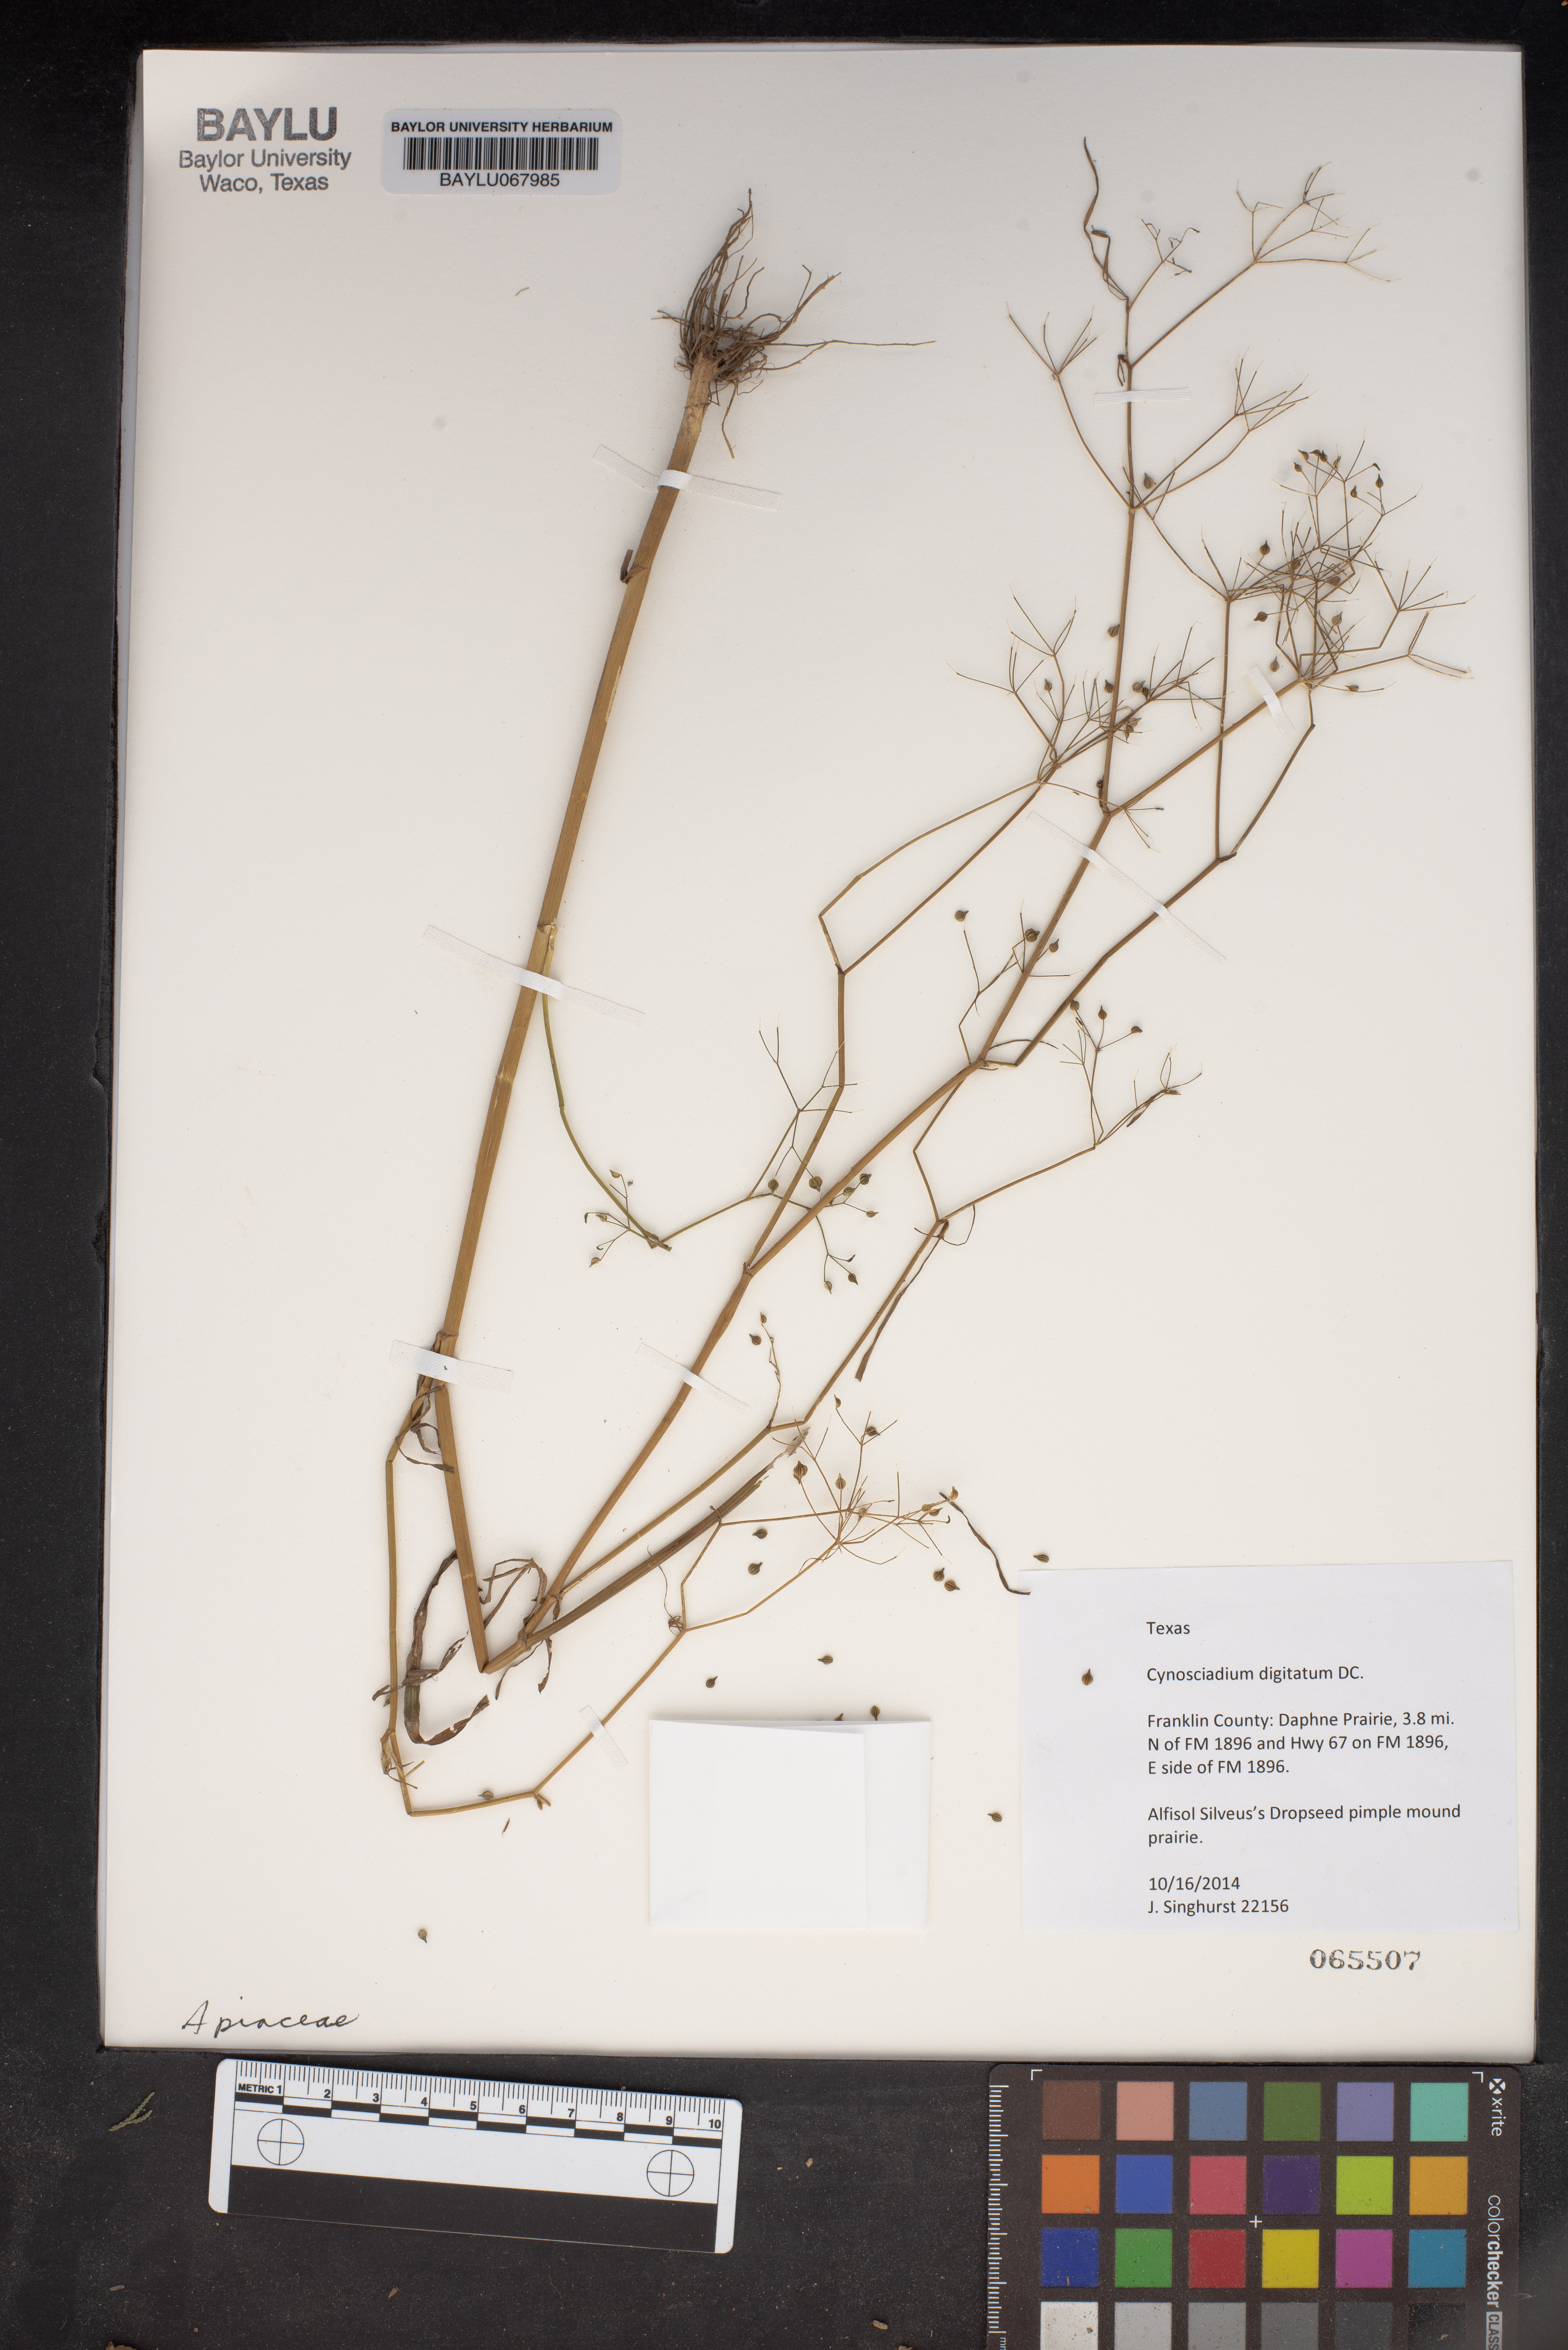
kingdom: Plantae
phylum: Tracheophyta
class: Magnoliopsida
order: Apiales
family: Apiaceae
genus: Cynosciadium
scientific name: Cynosciadium digitatum
